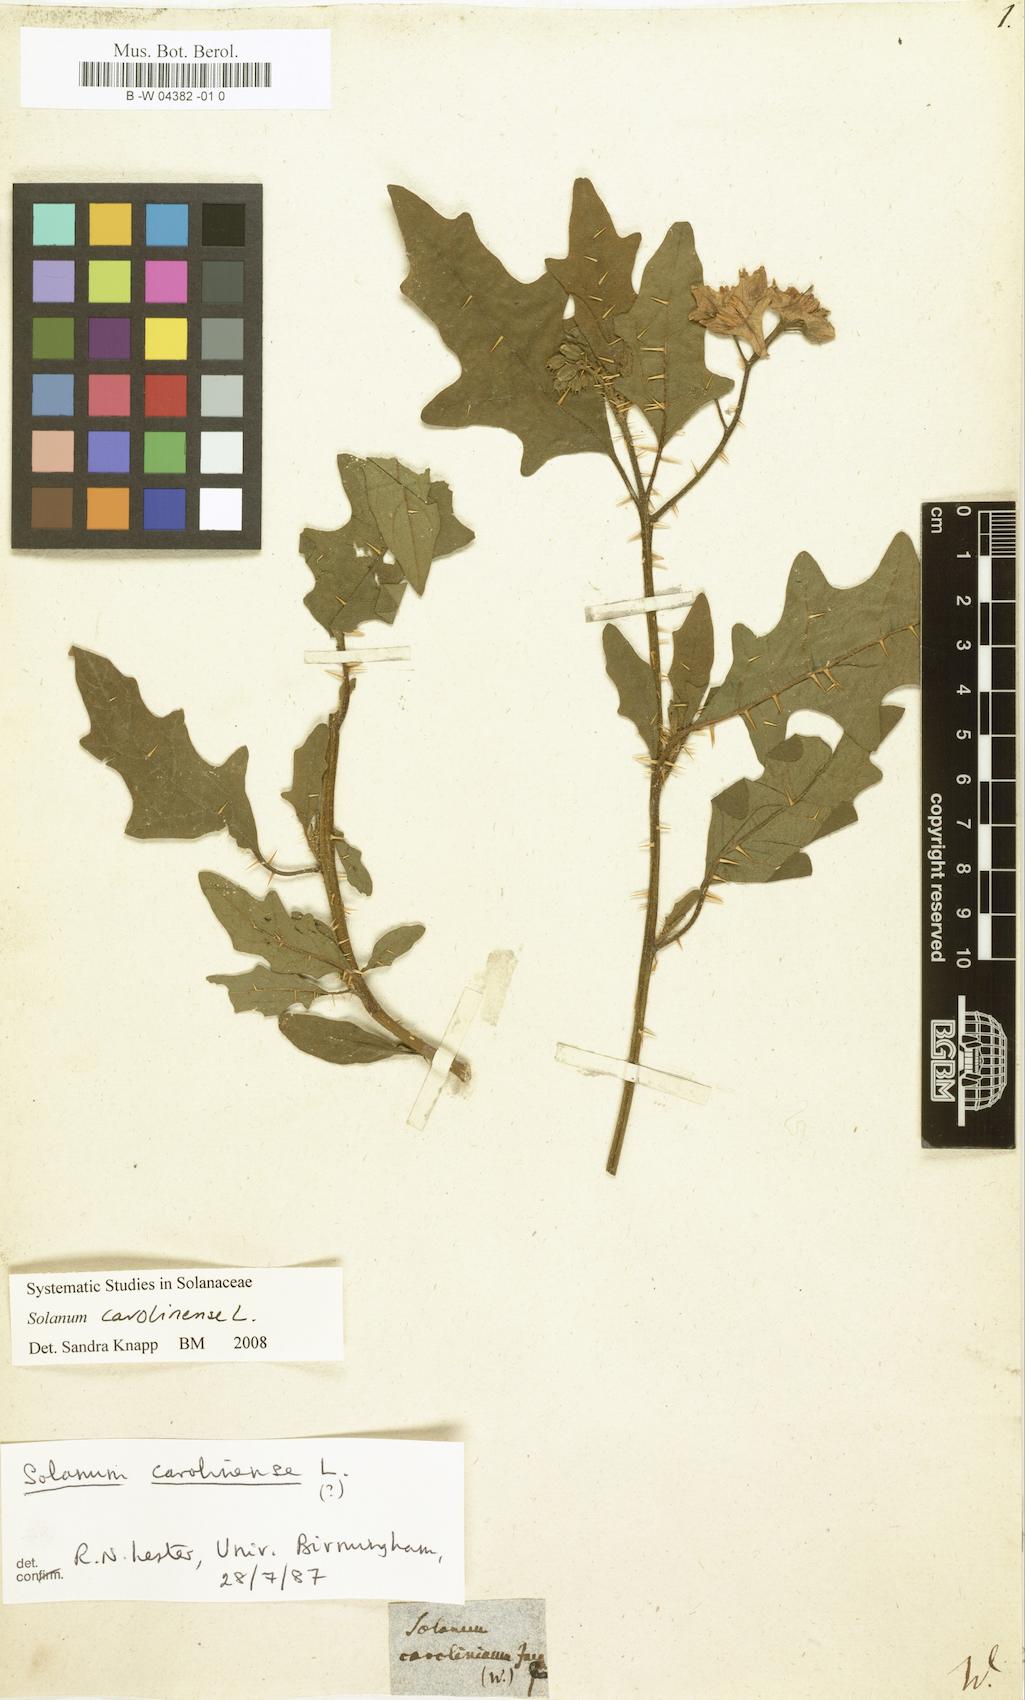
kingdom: Plantae
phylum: Tracheophyta
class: Magnoliopsida
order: Solanales
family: Solanaceae
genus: Solanum
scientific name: Solanum
